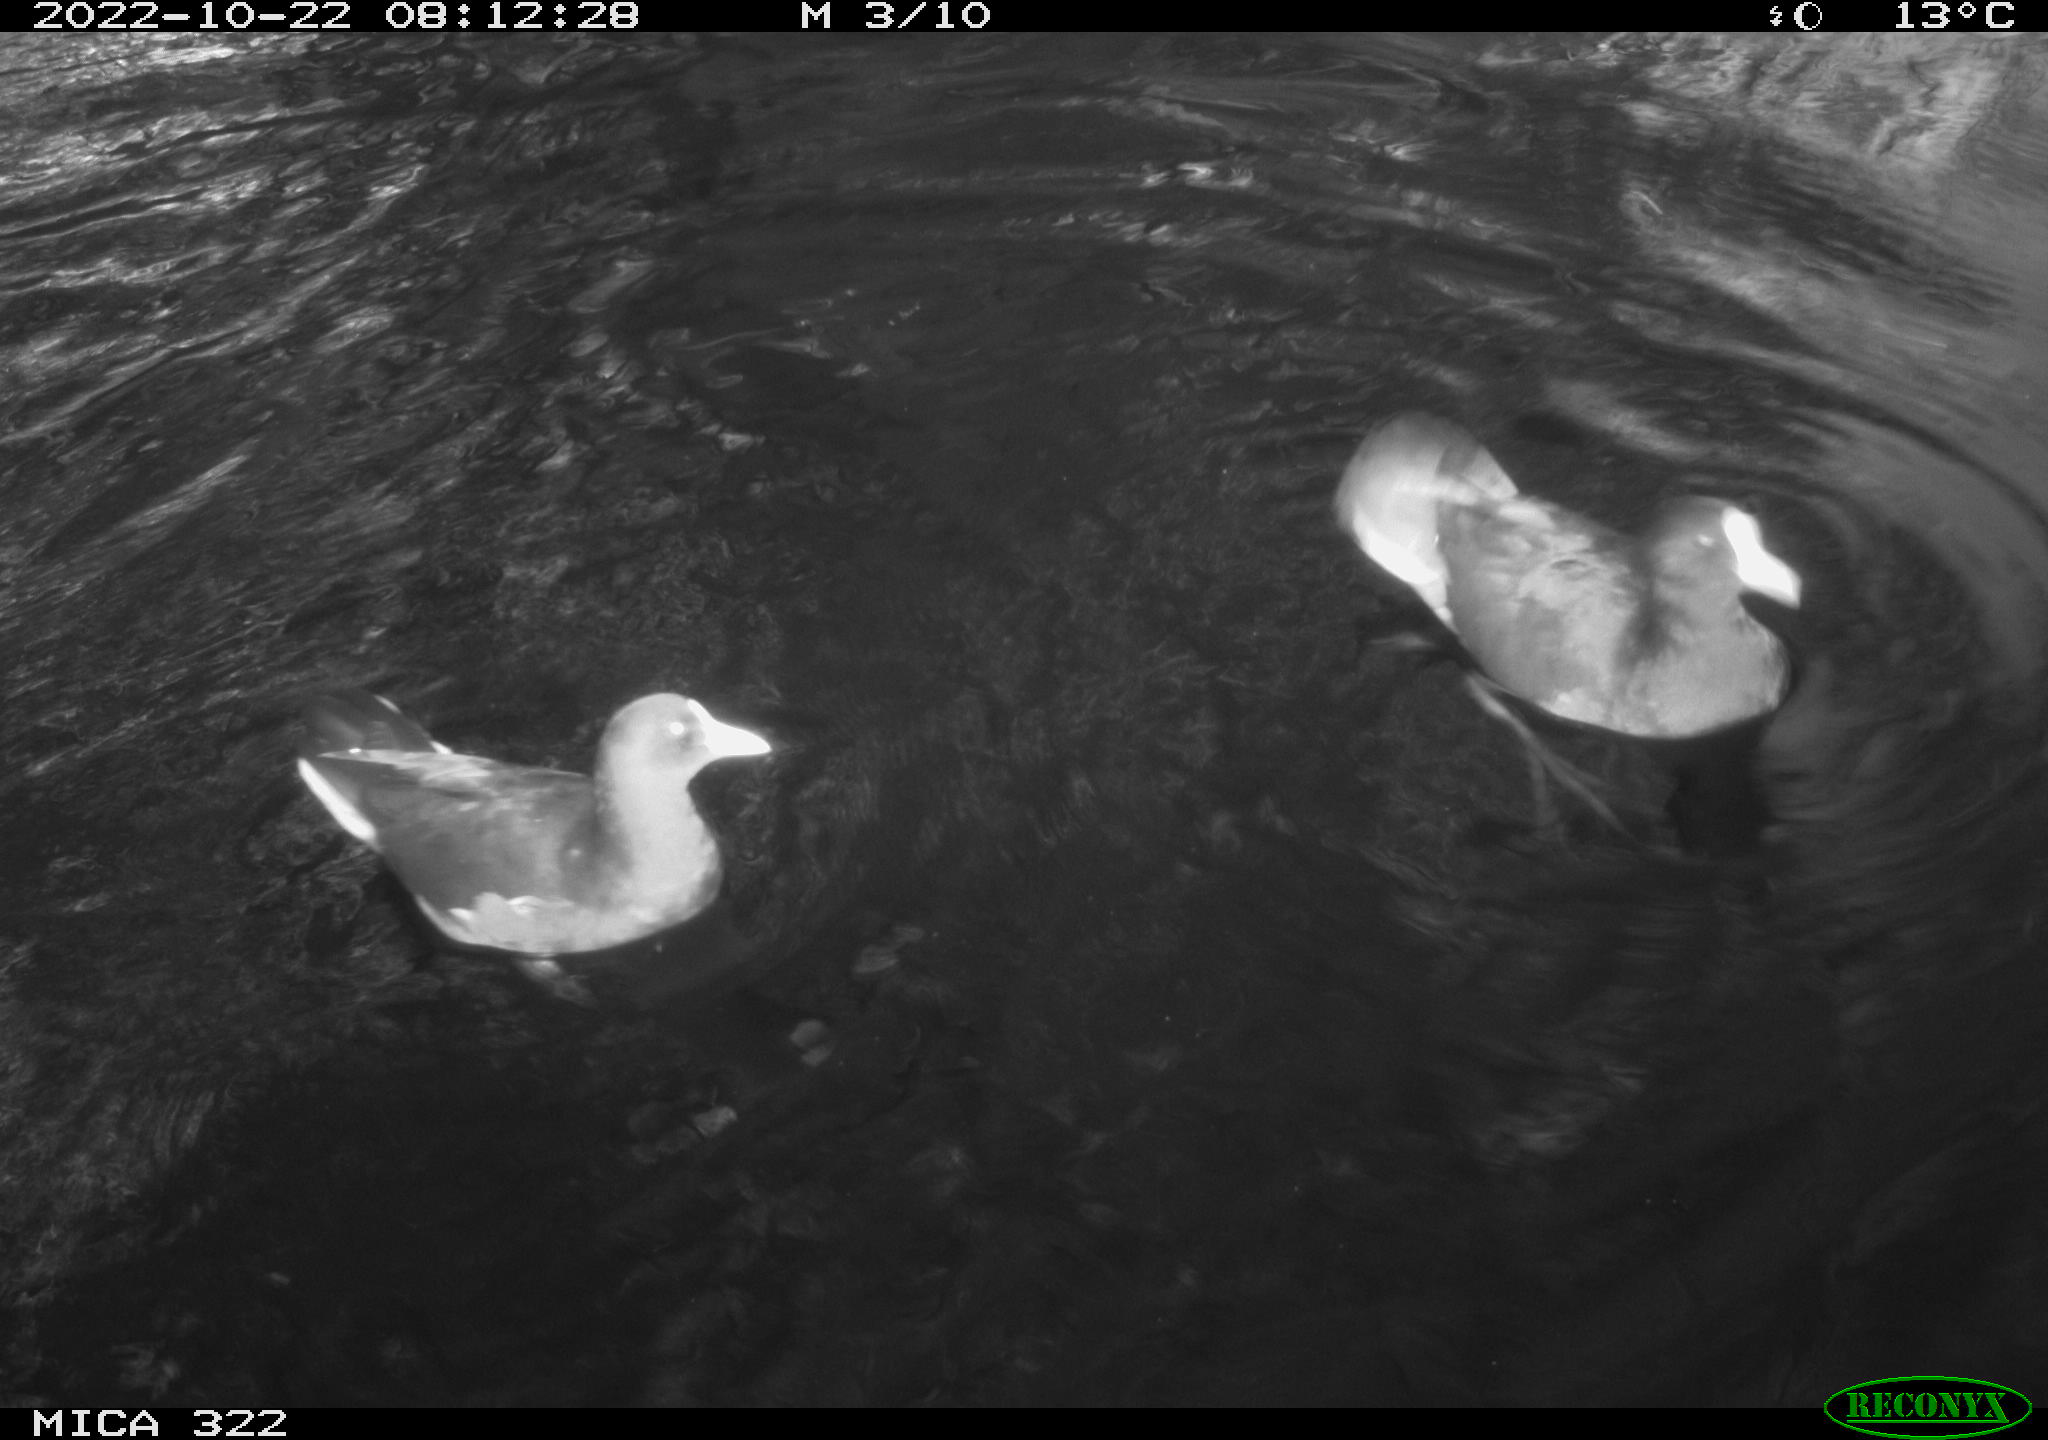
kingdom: Animalia
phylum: Chordata
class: Aves
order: Gruiformes
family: Rallidae
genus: Gallinula
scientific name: Gallinula chloropus
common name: Common moorhen
